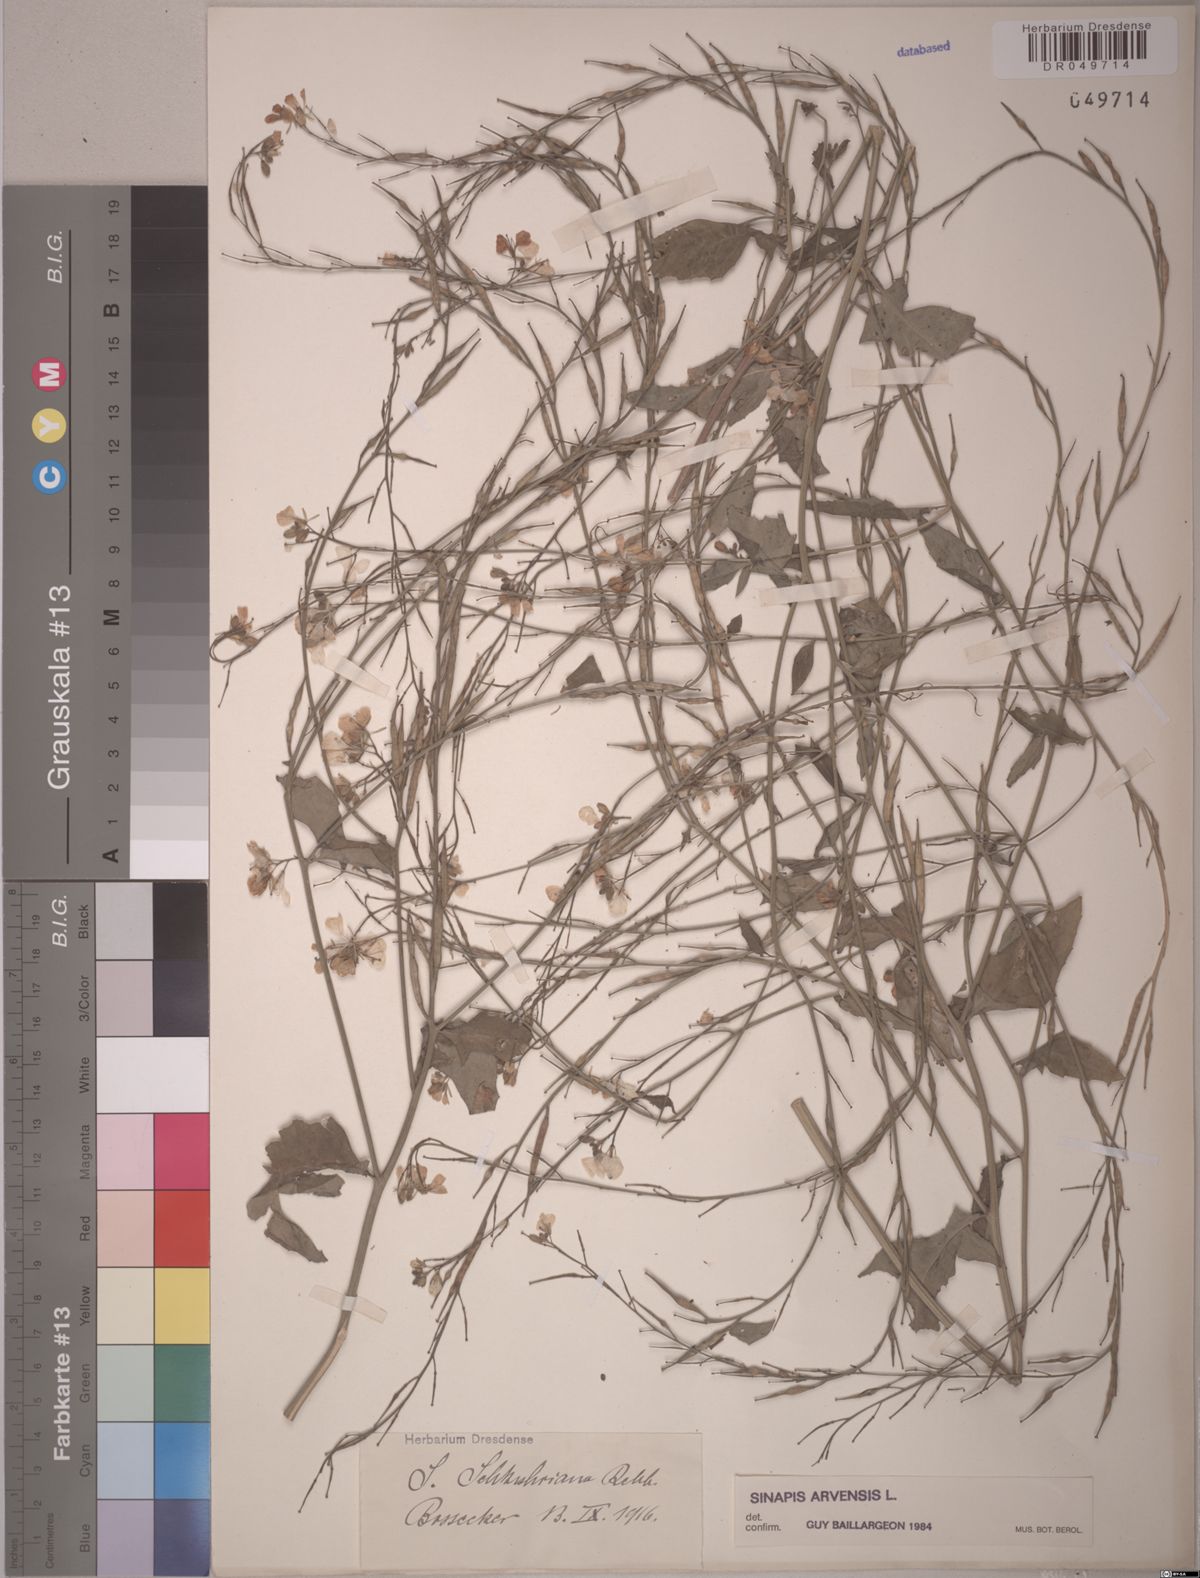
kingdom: Plantae
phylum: Tracheophyta
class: Magnoliopsida
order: Brassicales
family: Brassicaceae
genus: Sinapis
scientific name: Sinapis arvensis
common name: Charlock
